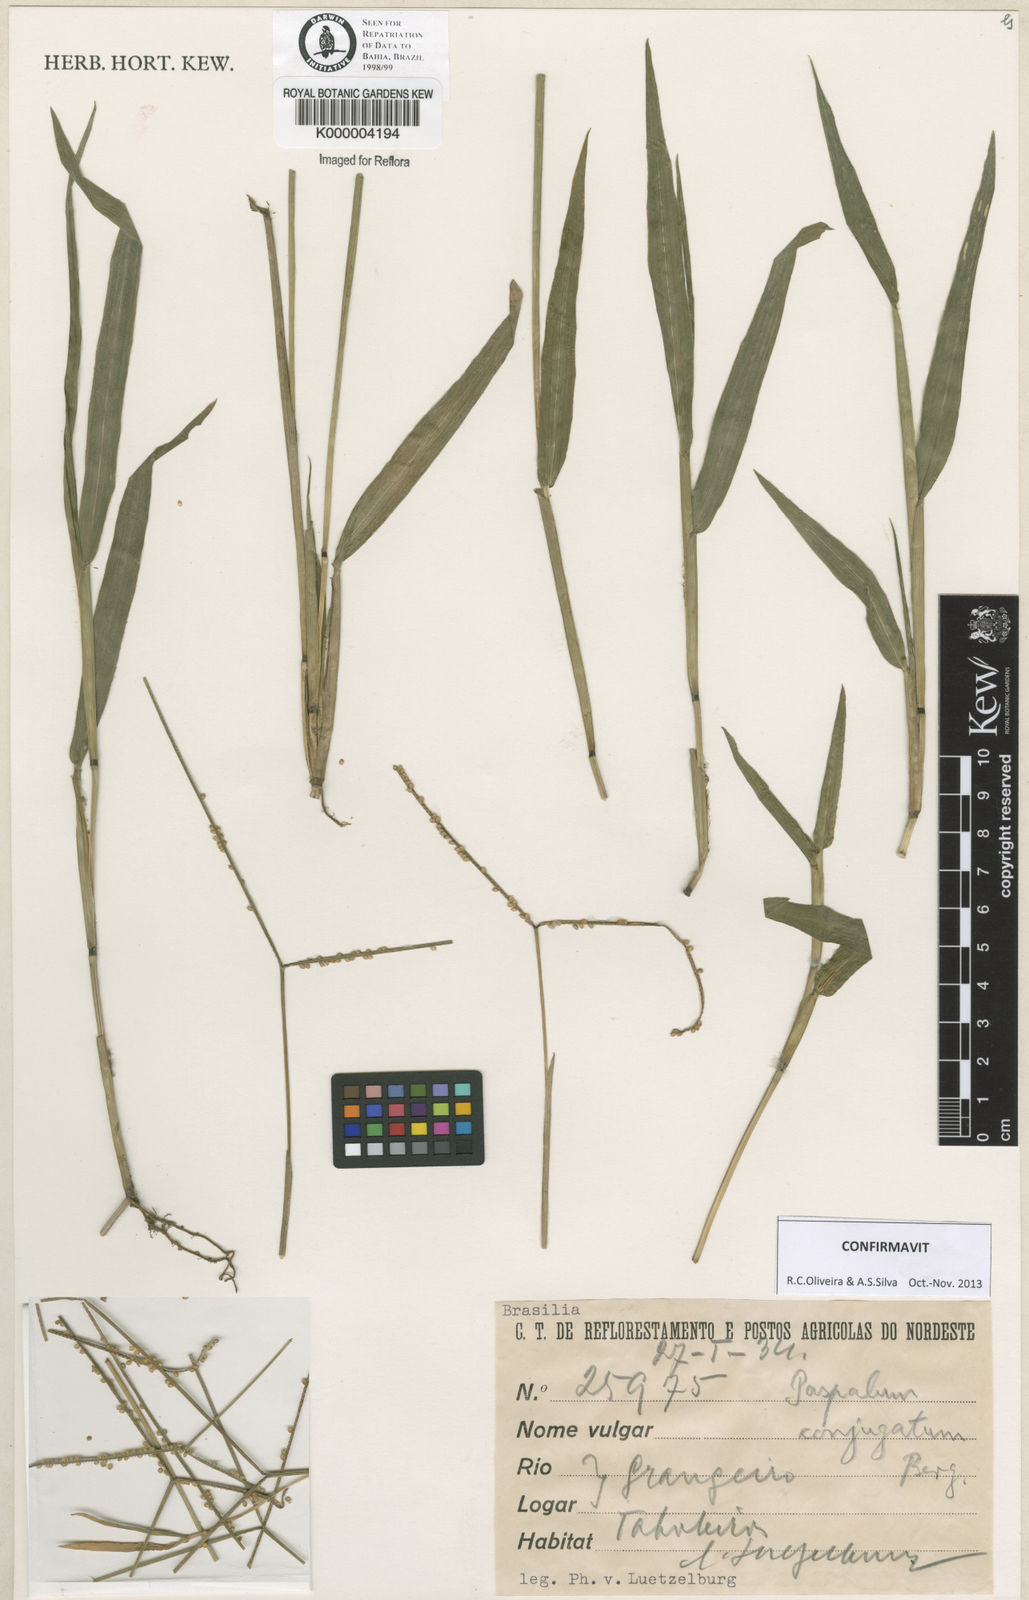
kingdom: Plantae
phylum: Tracheophyta
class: Liliopsida
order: Poales
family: Poaceae
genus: Paspalum
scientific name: Paspalum conjugatum
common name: Hilograss
